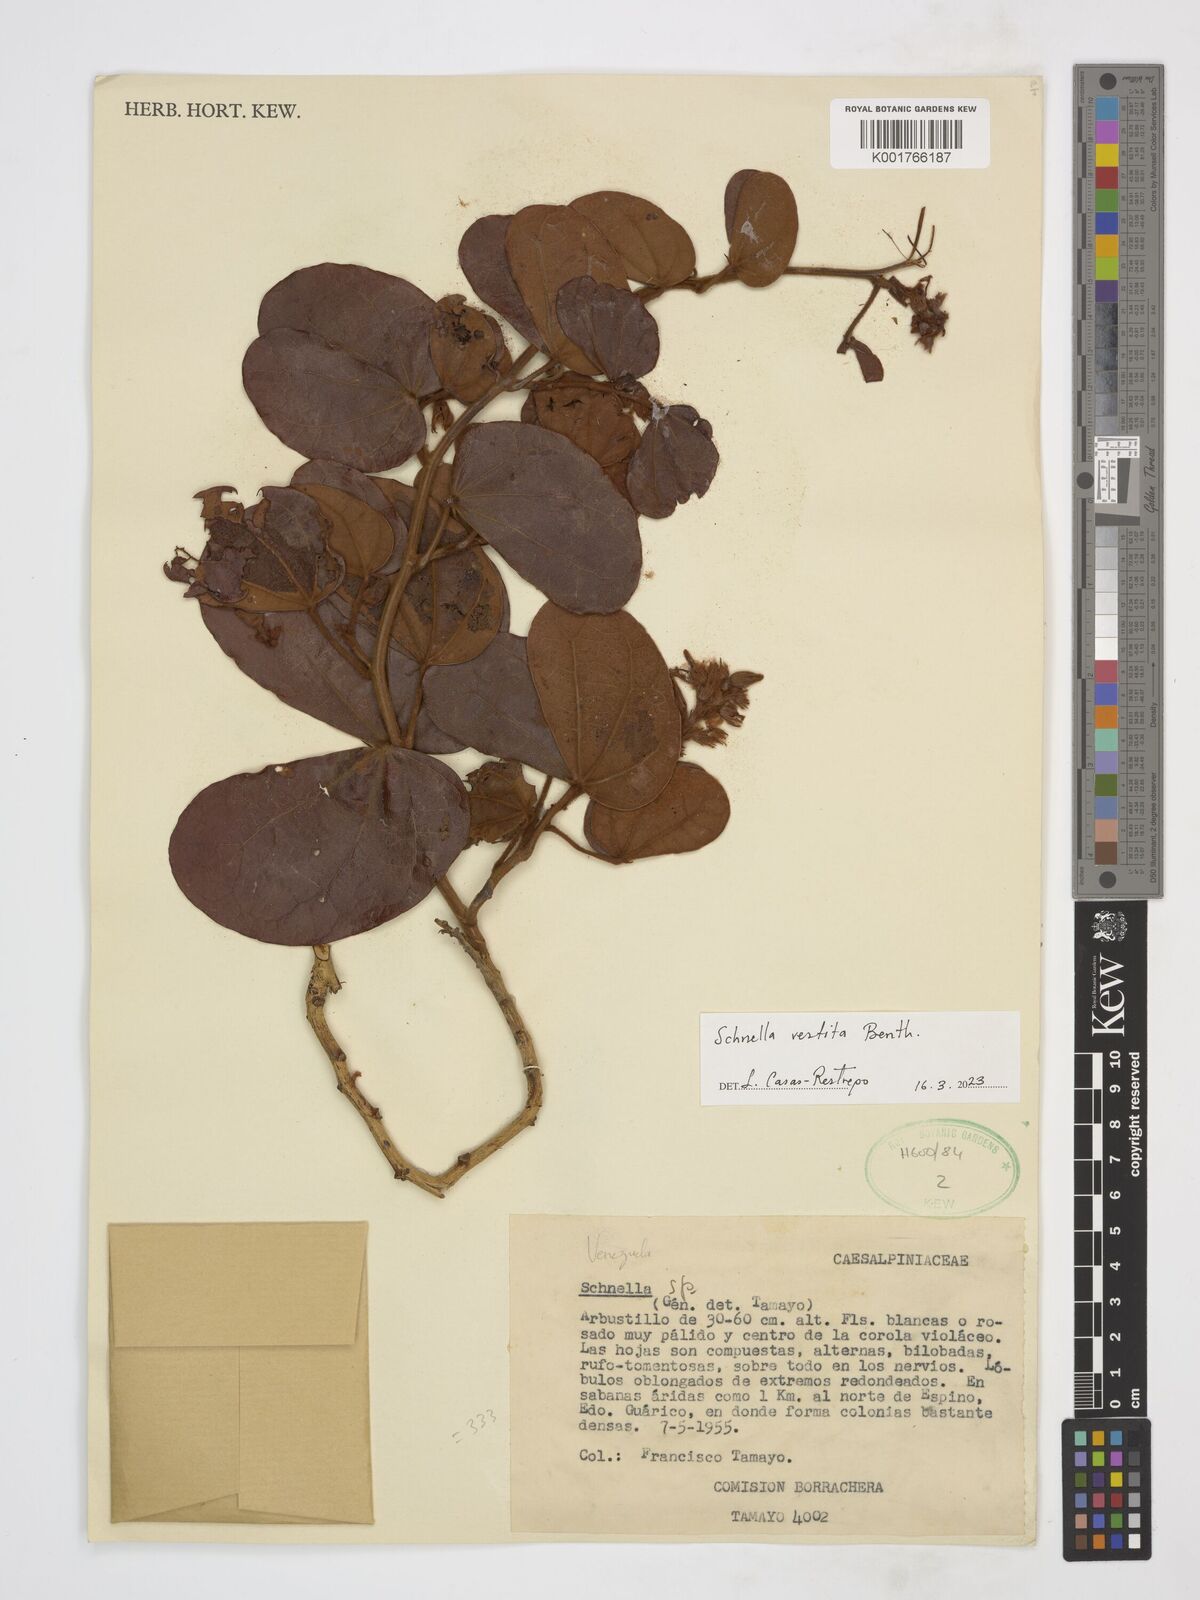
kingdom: Plantae
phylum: Tracheophyta
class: Magnoliopsida
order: Fabales
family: Fabaceae
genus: Schnella
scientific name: Schnella vestita
